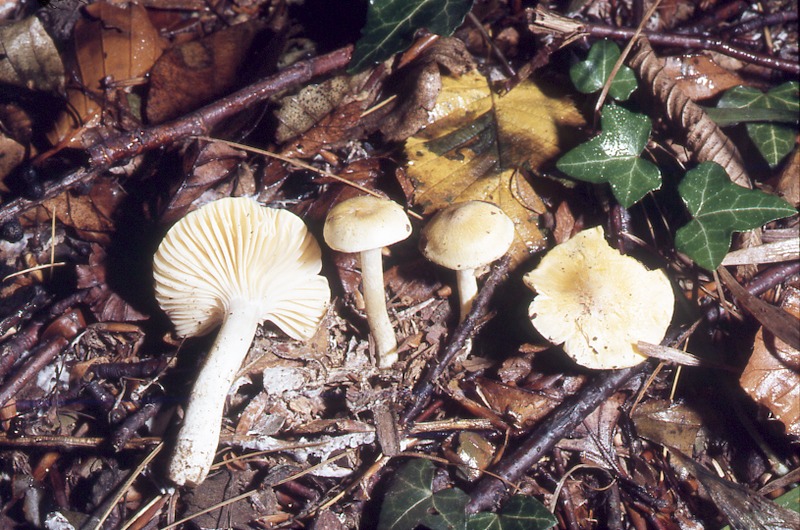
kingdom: Fungi
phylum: Basidiomycota
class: Agaricomycetes
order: Agaricales
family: Hygrophoraceae
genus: Hygrophorus
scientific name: Hygrophorus lucorum
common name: Larch woodwax
